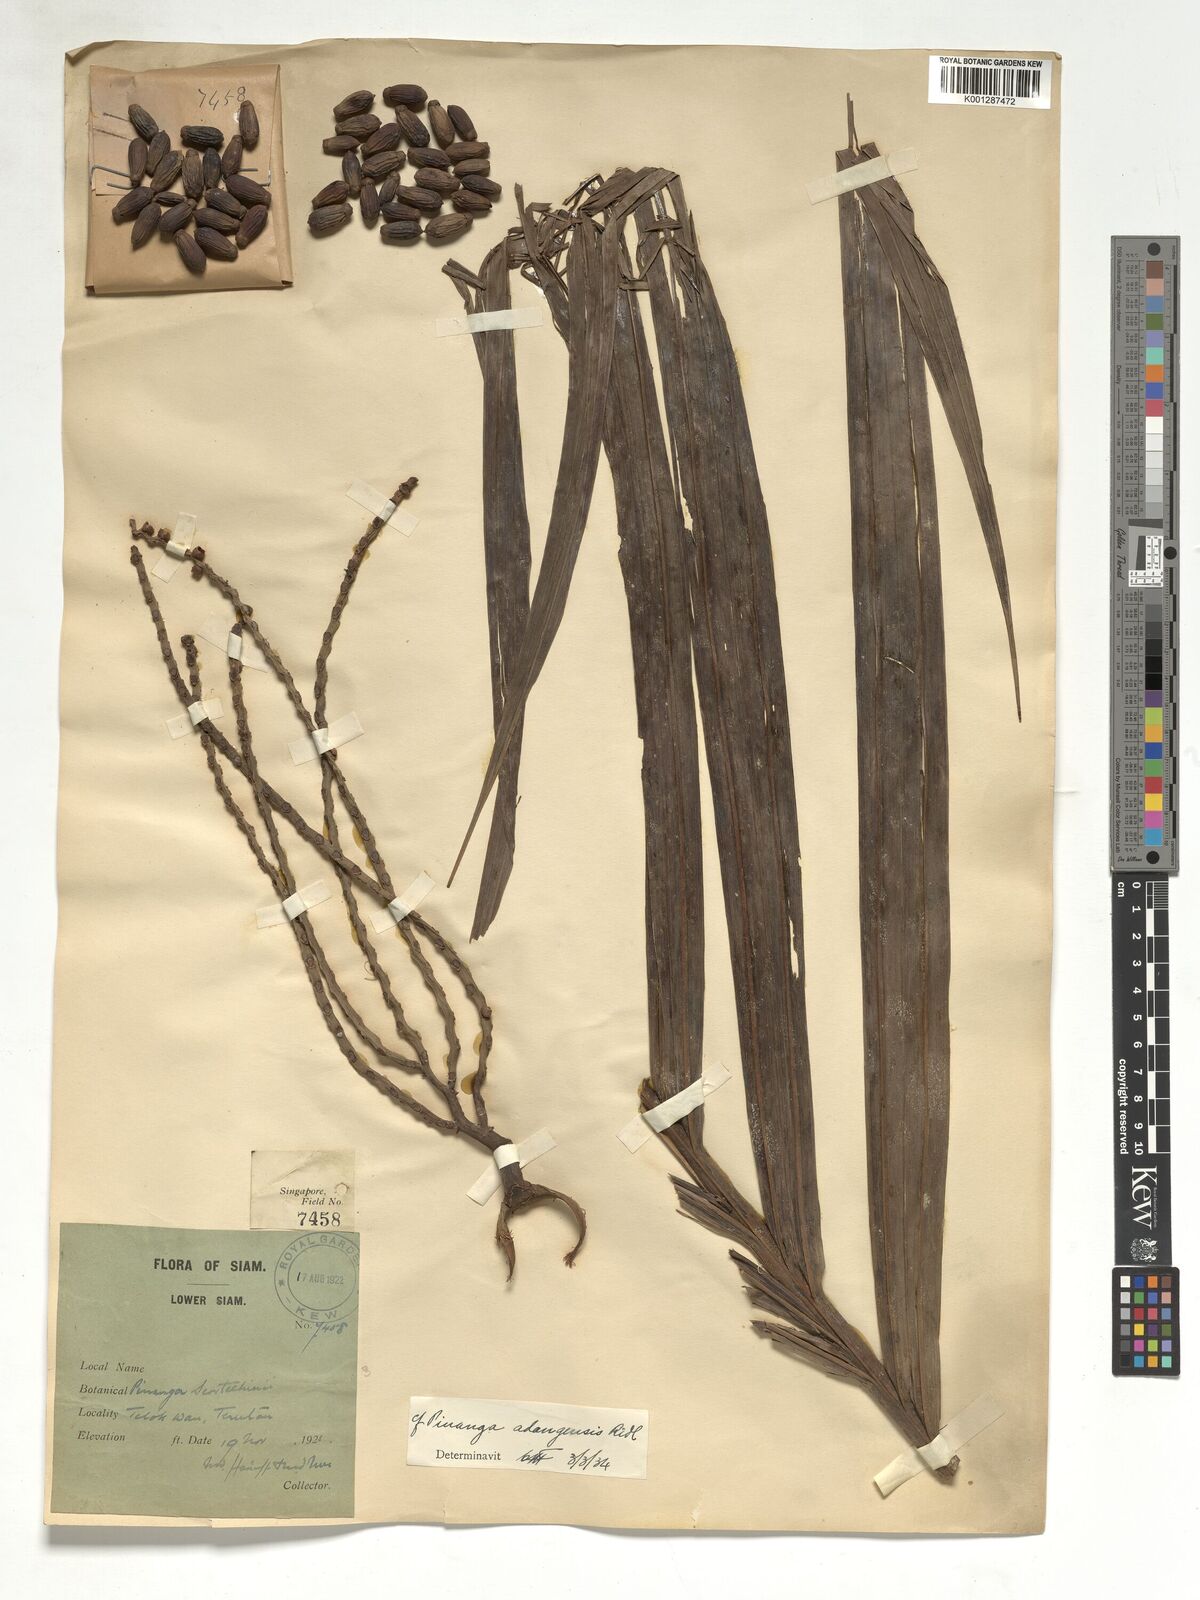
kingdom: Plantae
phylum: Tracheophyta
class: Liliopsida
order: Arecales
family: Arecaceae
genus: Pinanga
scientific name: Pinanga adangensis
